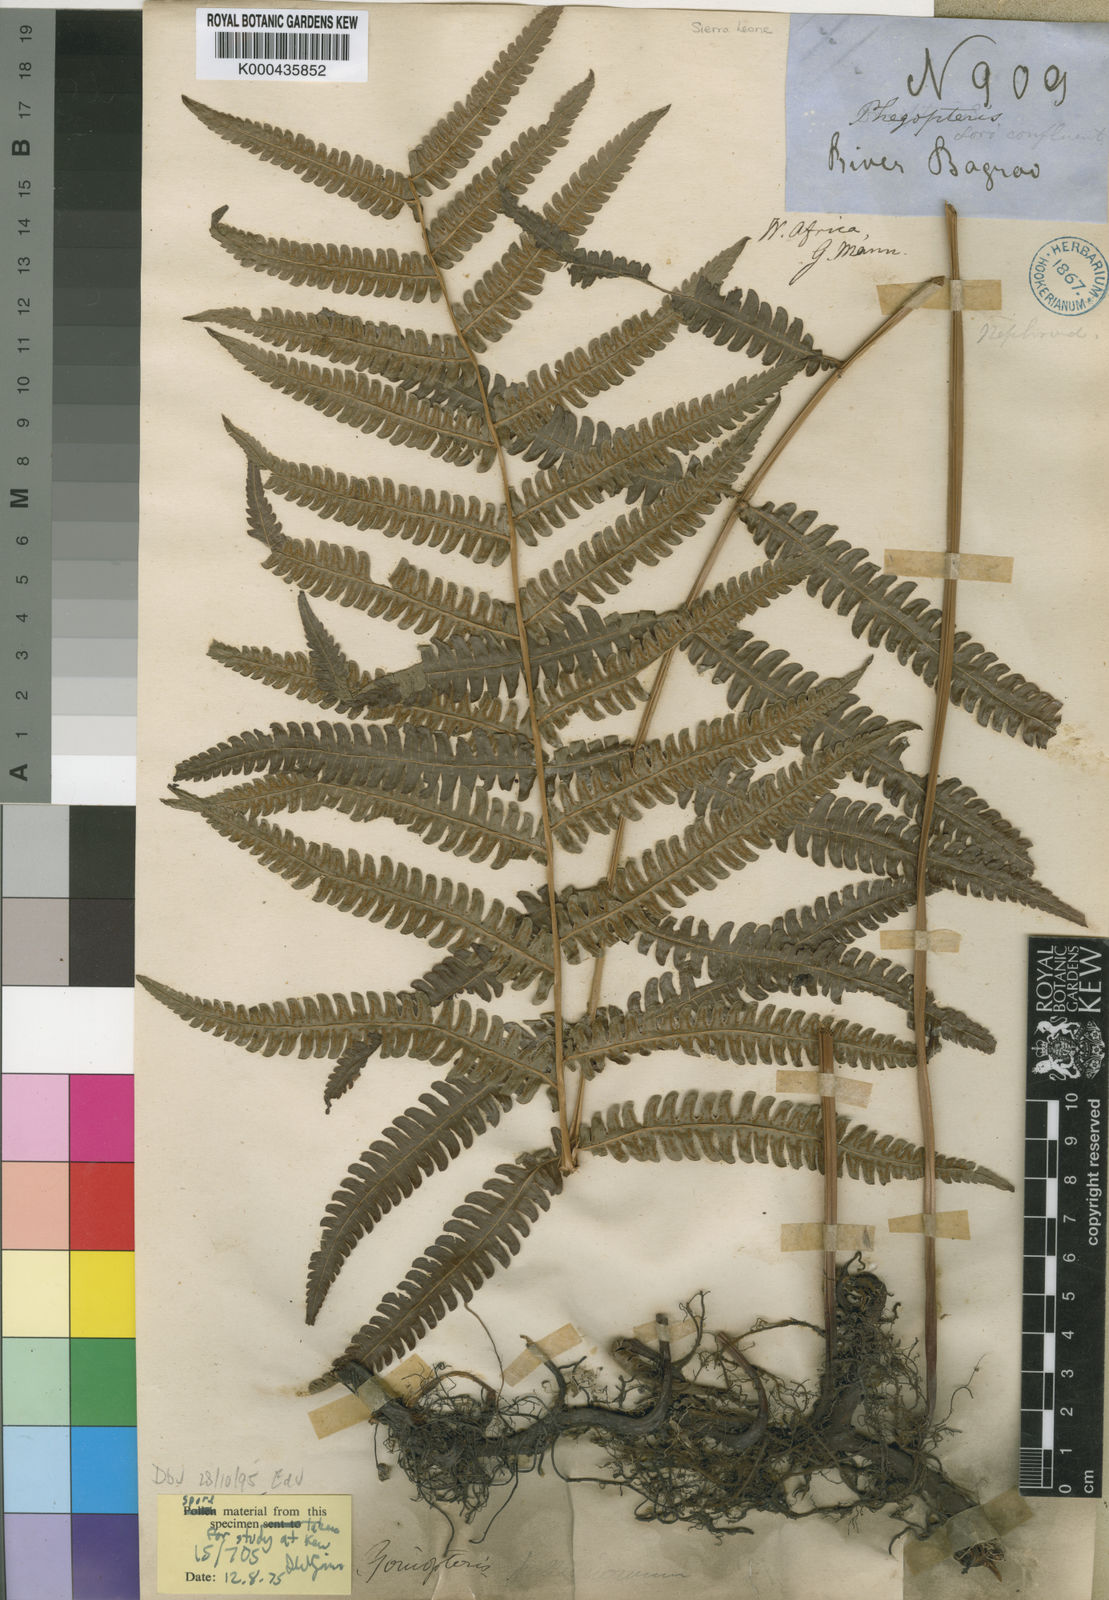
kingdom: Plantae
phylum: Tracheophyta
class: Polypodiopsida
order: Polypodiales
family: Thelypteridaceae
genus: Cyclosorus
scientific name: Cyclosorus striatus
